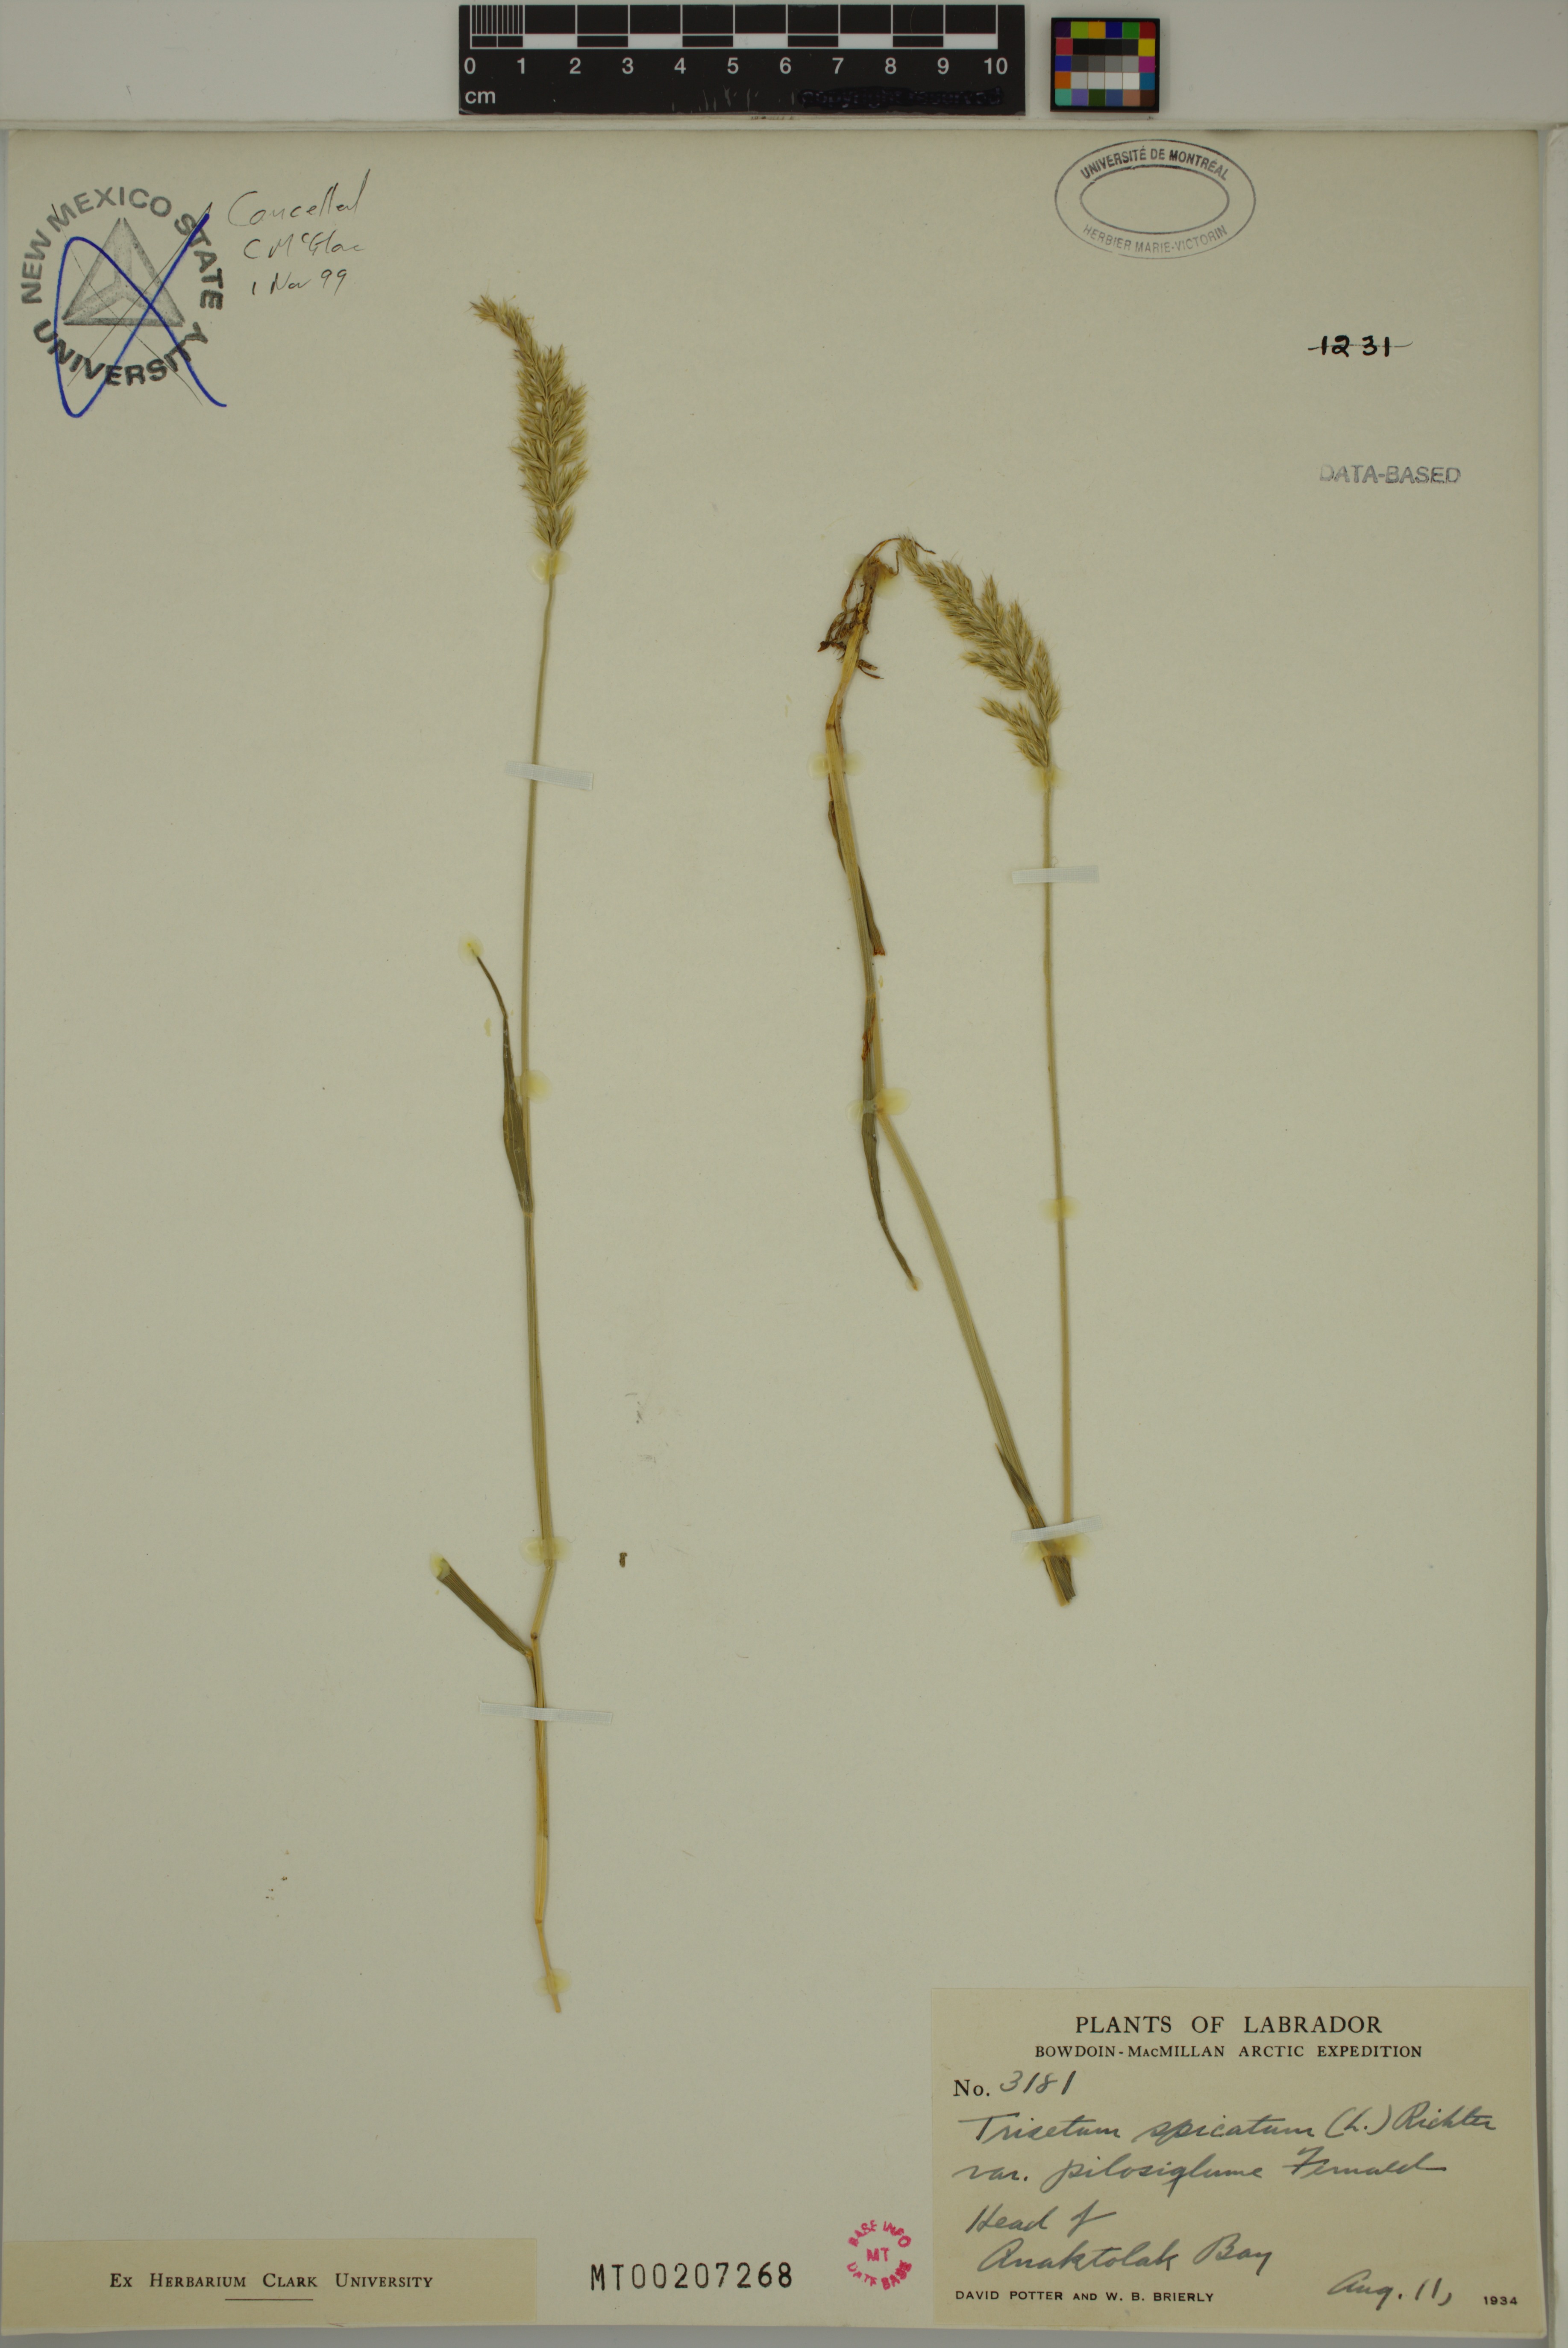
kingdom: Plantae
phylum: Tracheophyta
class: Liliopsida
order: Poales
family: Poaceae
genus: Koeleria
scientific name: Koeleria spicata
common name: Mountain trisetum
